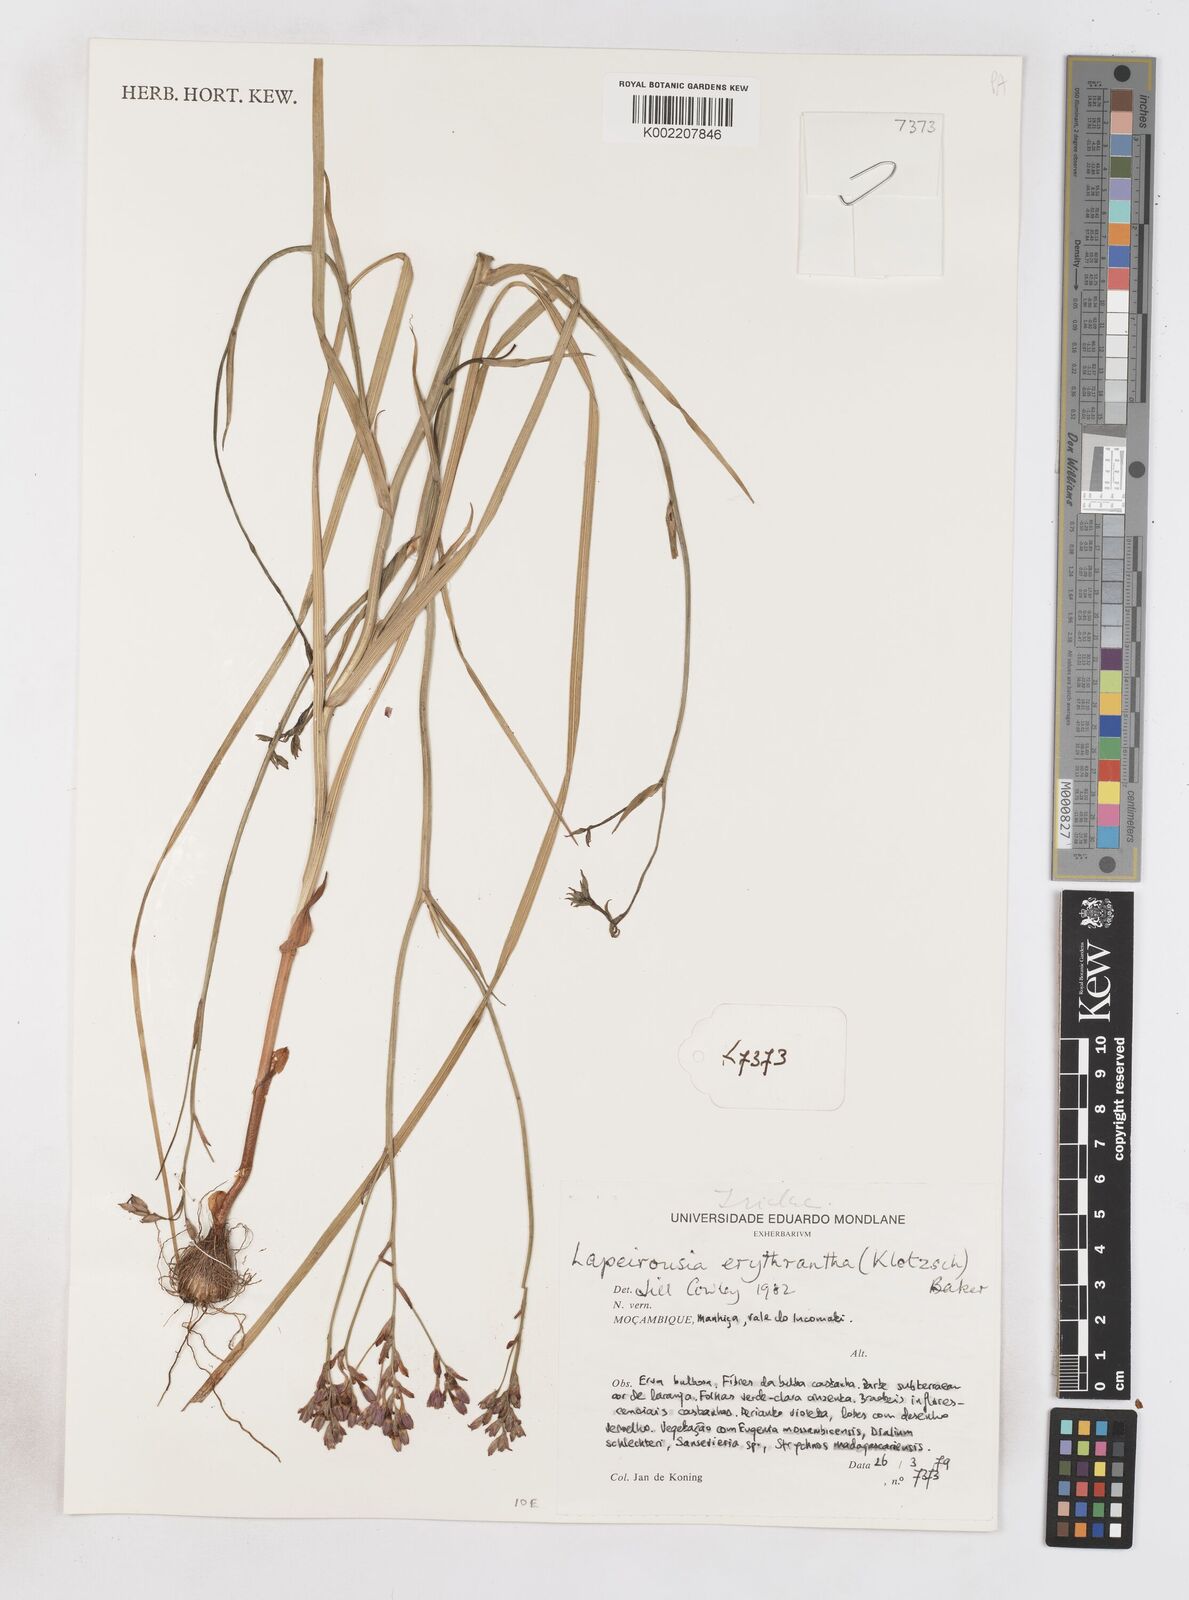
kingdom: Plantae
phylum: Tracheophyta
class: Liliopsida
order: Asparagales
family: Iridaceae
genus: Afrosolen
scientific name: Afrosolen erythranthus
